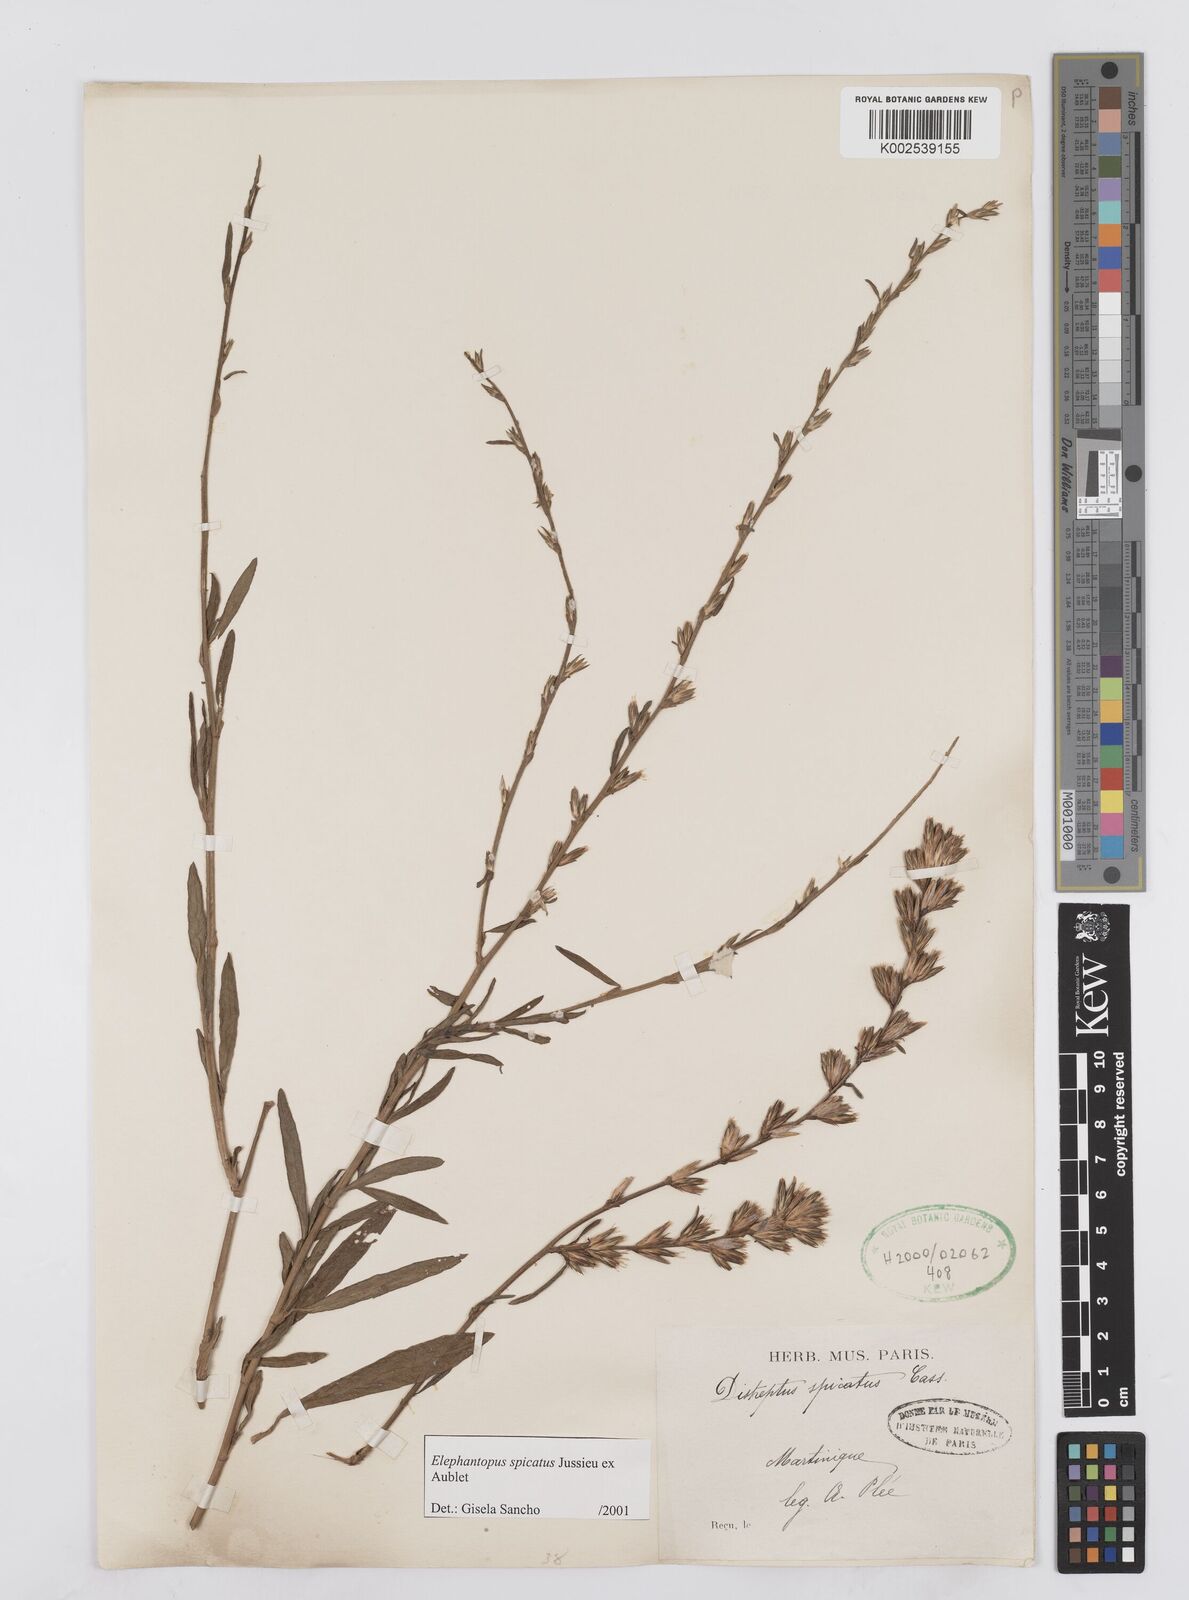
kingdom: Plantae
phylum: Tracheophyta
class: Magnoliopsida
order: Asterales
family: Asteraceae
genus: Pseudelephantopus
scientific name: Pseudelephantopus spicatus
